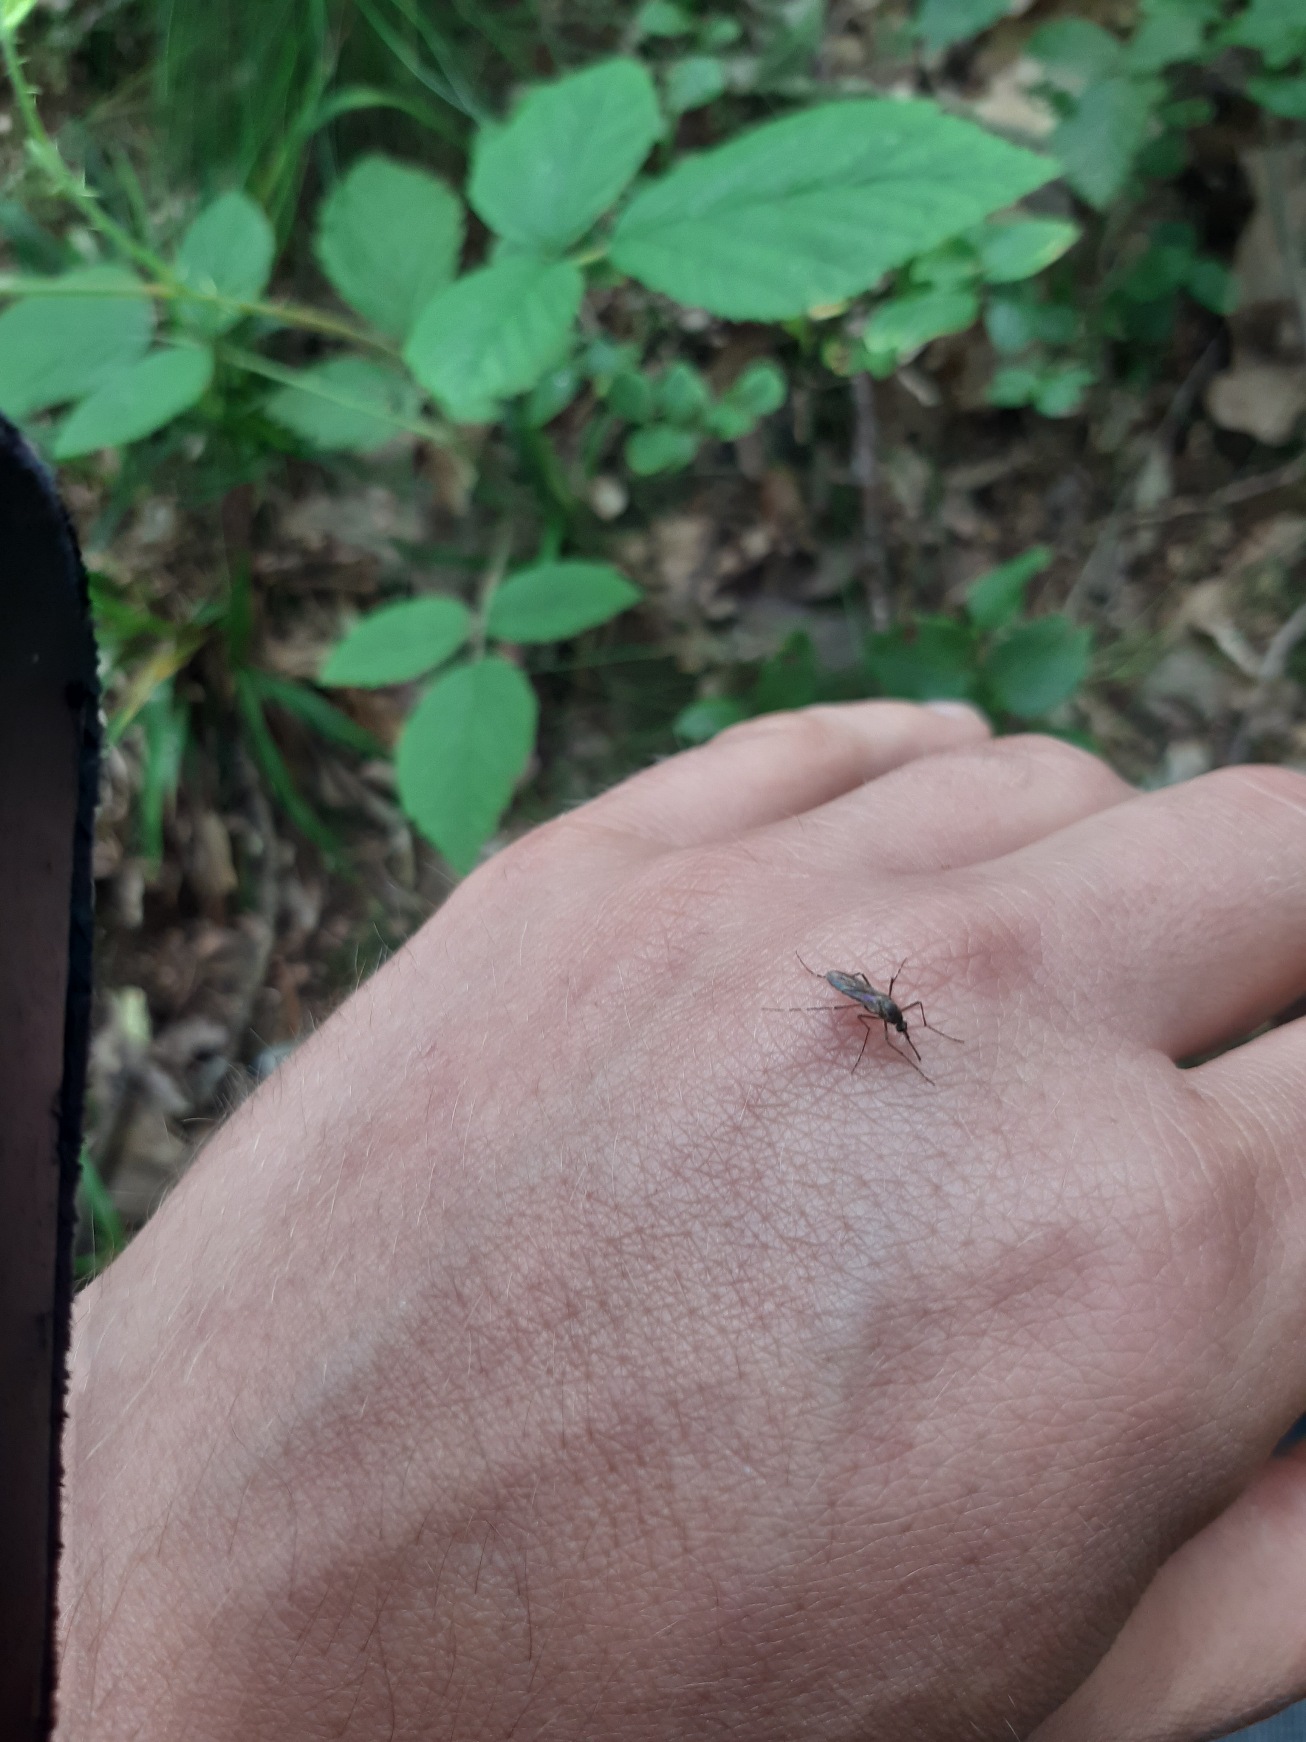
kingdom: Animalia
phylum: Arthropoda
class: Insecta
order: Diptera
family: Culicidae
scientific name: Culicidae
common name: Stikmyg
